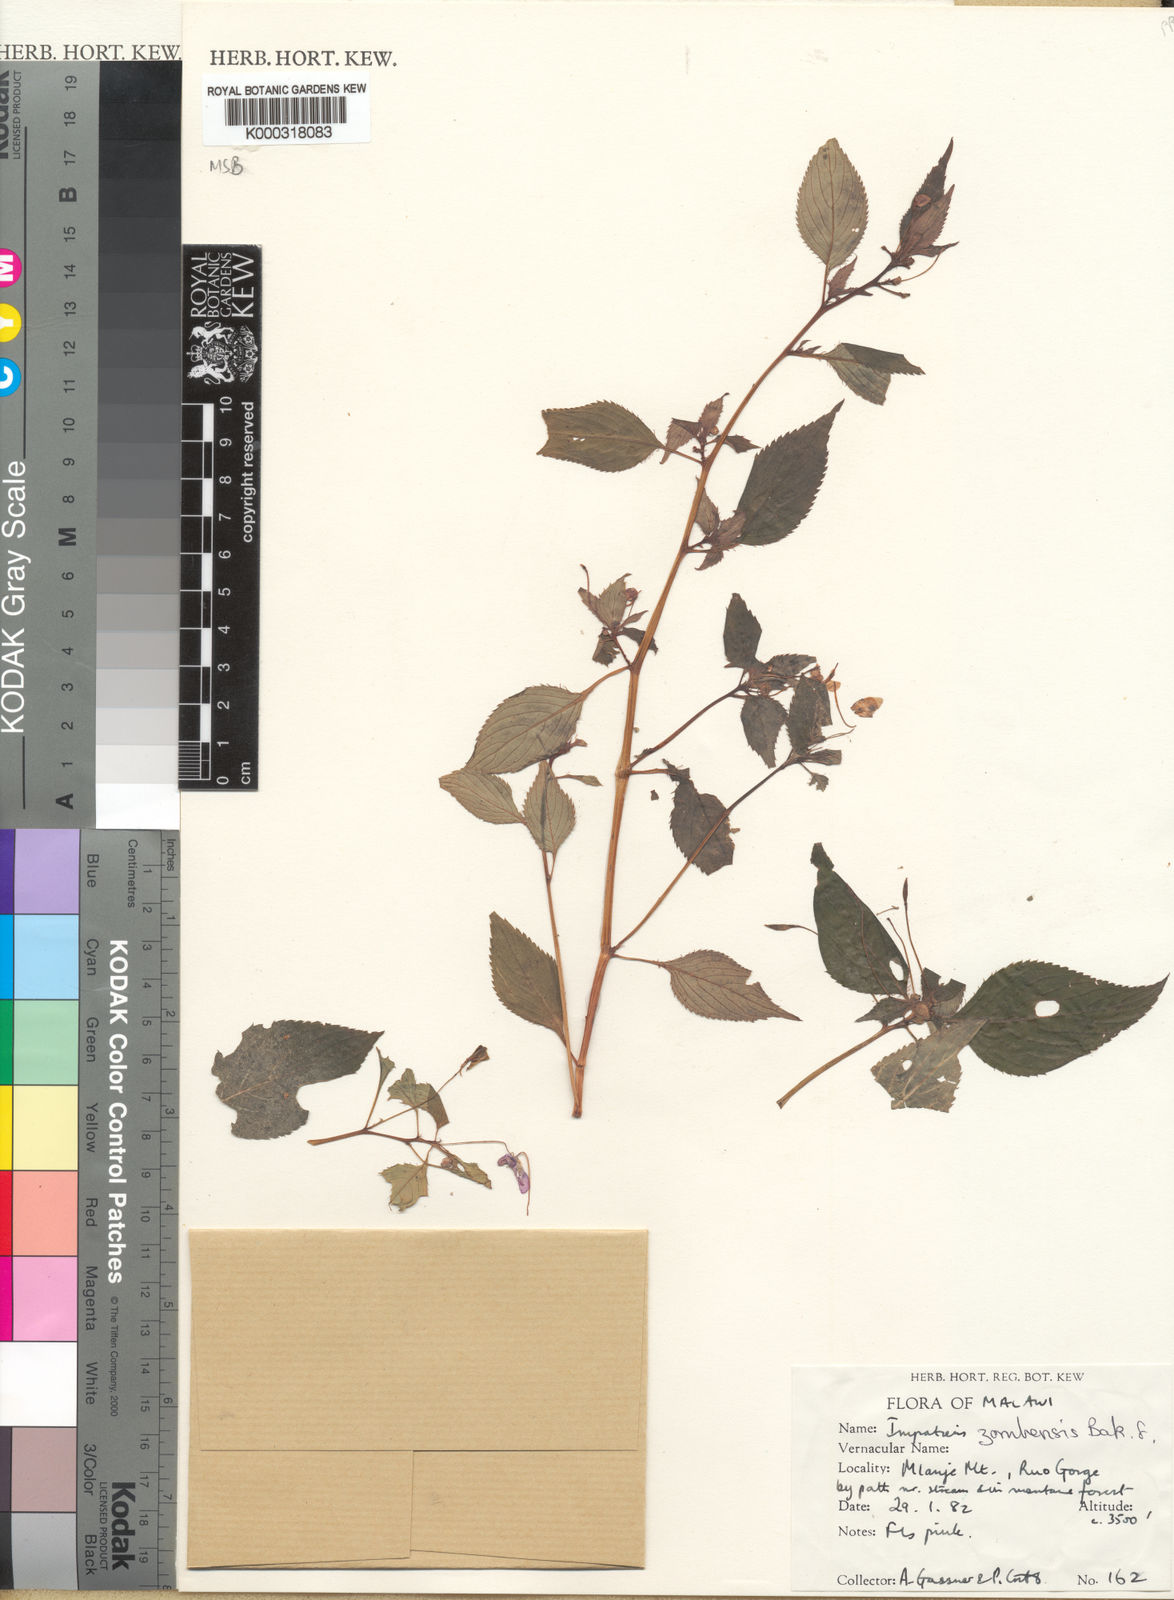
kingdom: Plantae
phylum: Tracheophyta
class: Magnoliopsida
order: Ericales
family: Balsaminaceae
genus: Impatiens
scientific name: Impatiens zombensis
